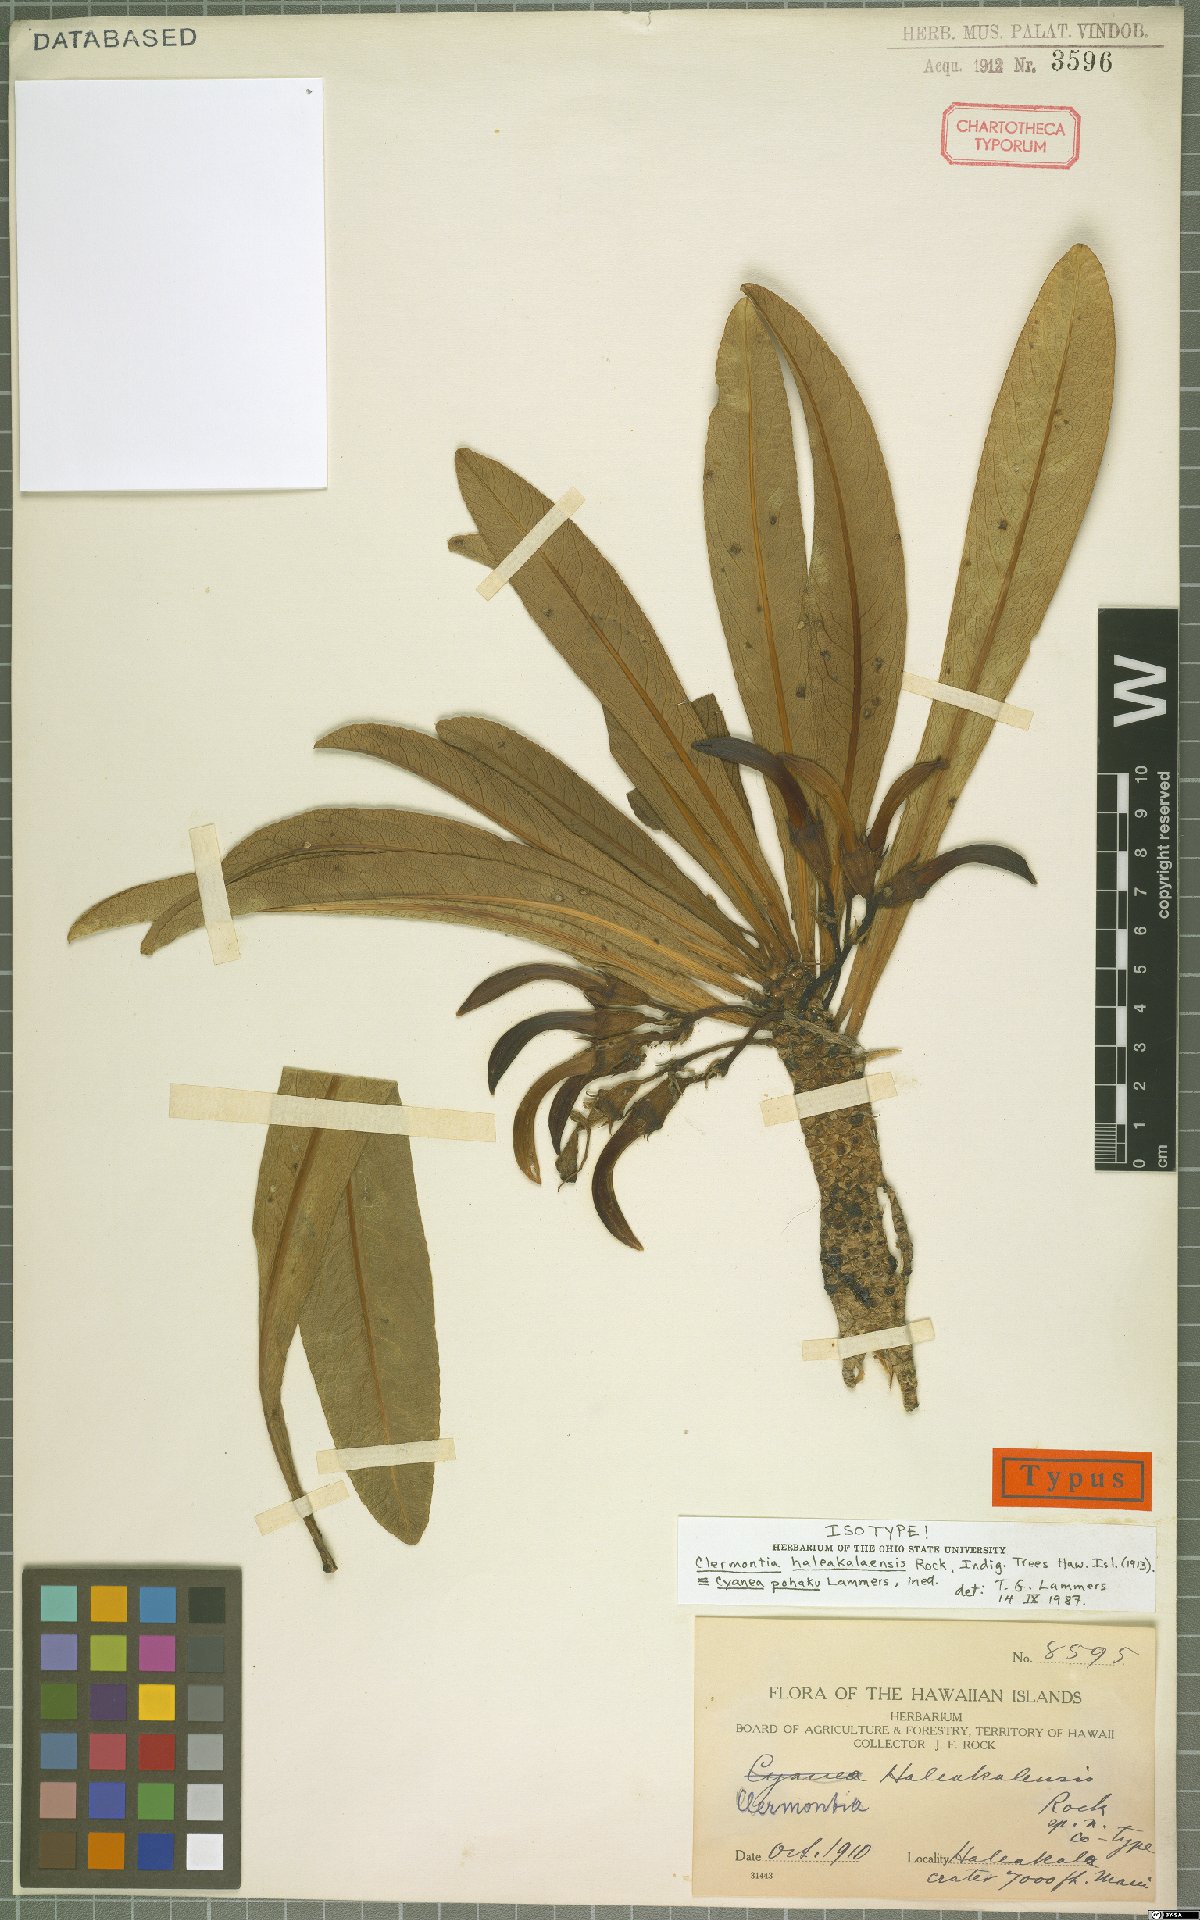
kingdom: Plantae
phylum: Tracheophyta
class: Magnoliopsida
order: Asterales
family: Campanulaceae
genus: Cyanea
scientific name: Cyanea pohaku
